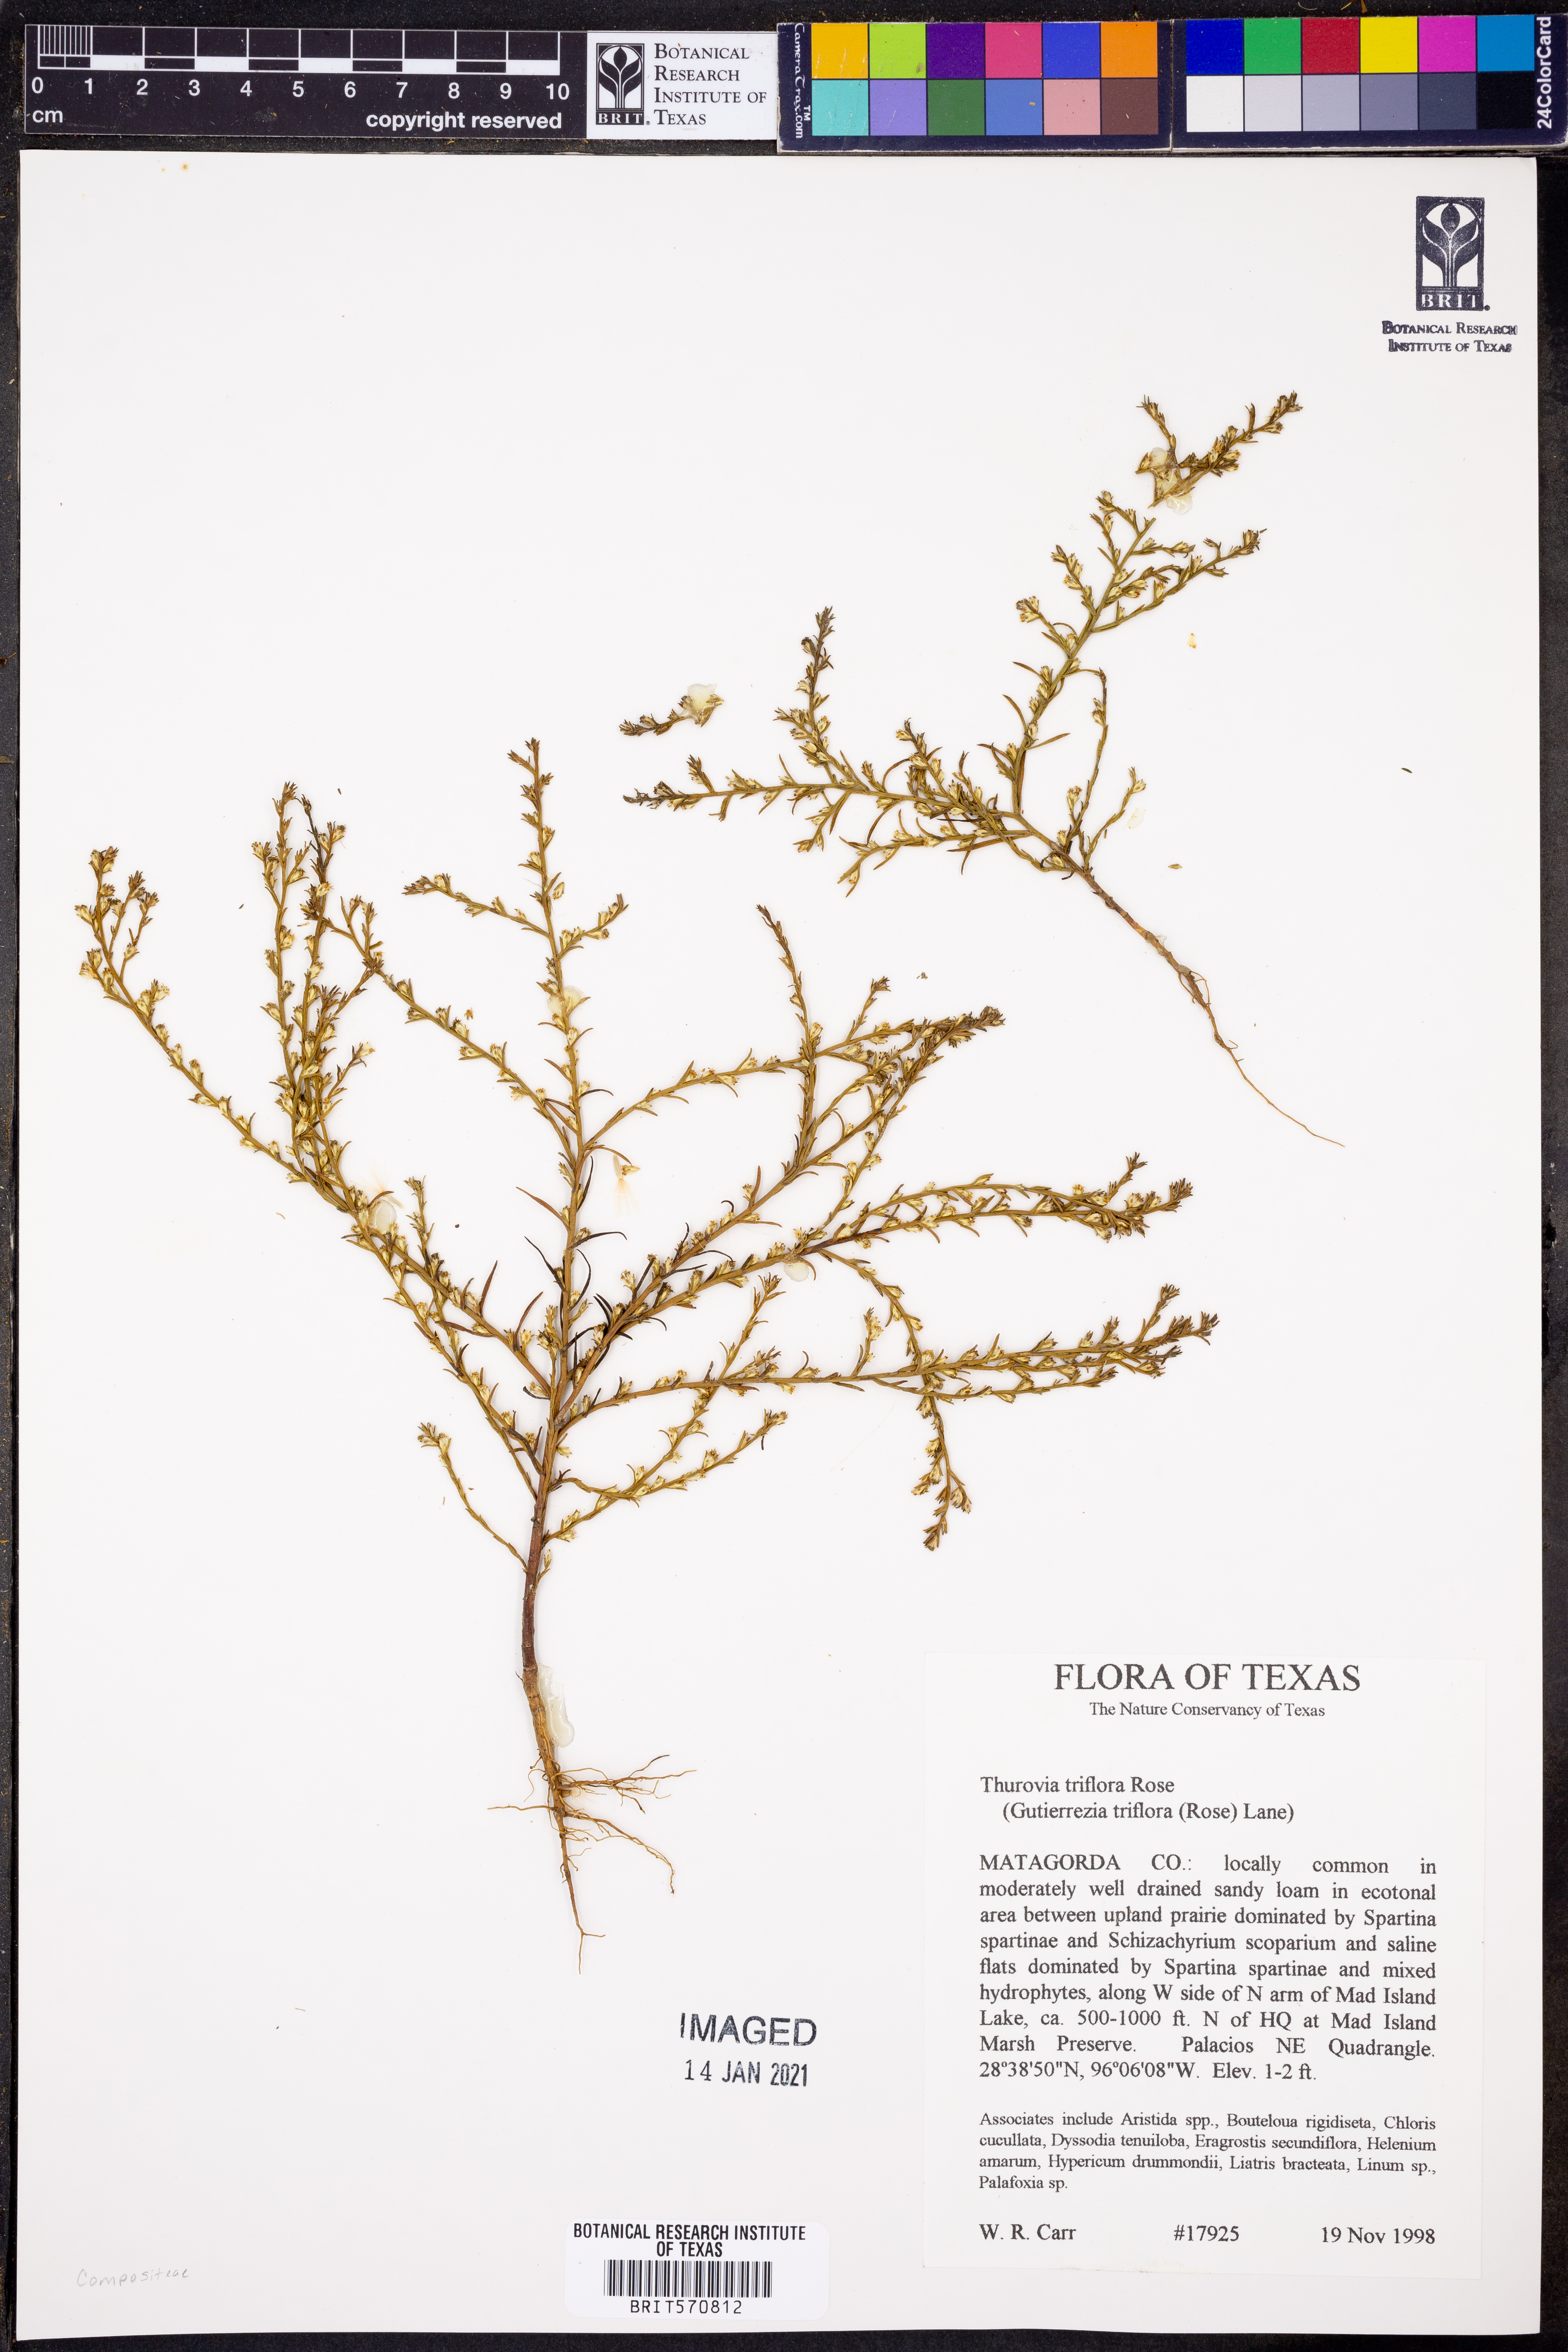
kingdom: Plantae
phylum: Tracheophyta
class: Magnoliopsida
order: Asterales
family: Asteraceae
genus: Thurovia
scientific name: Thurovia triflora
